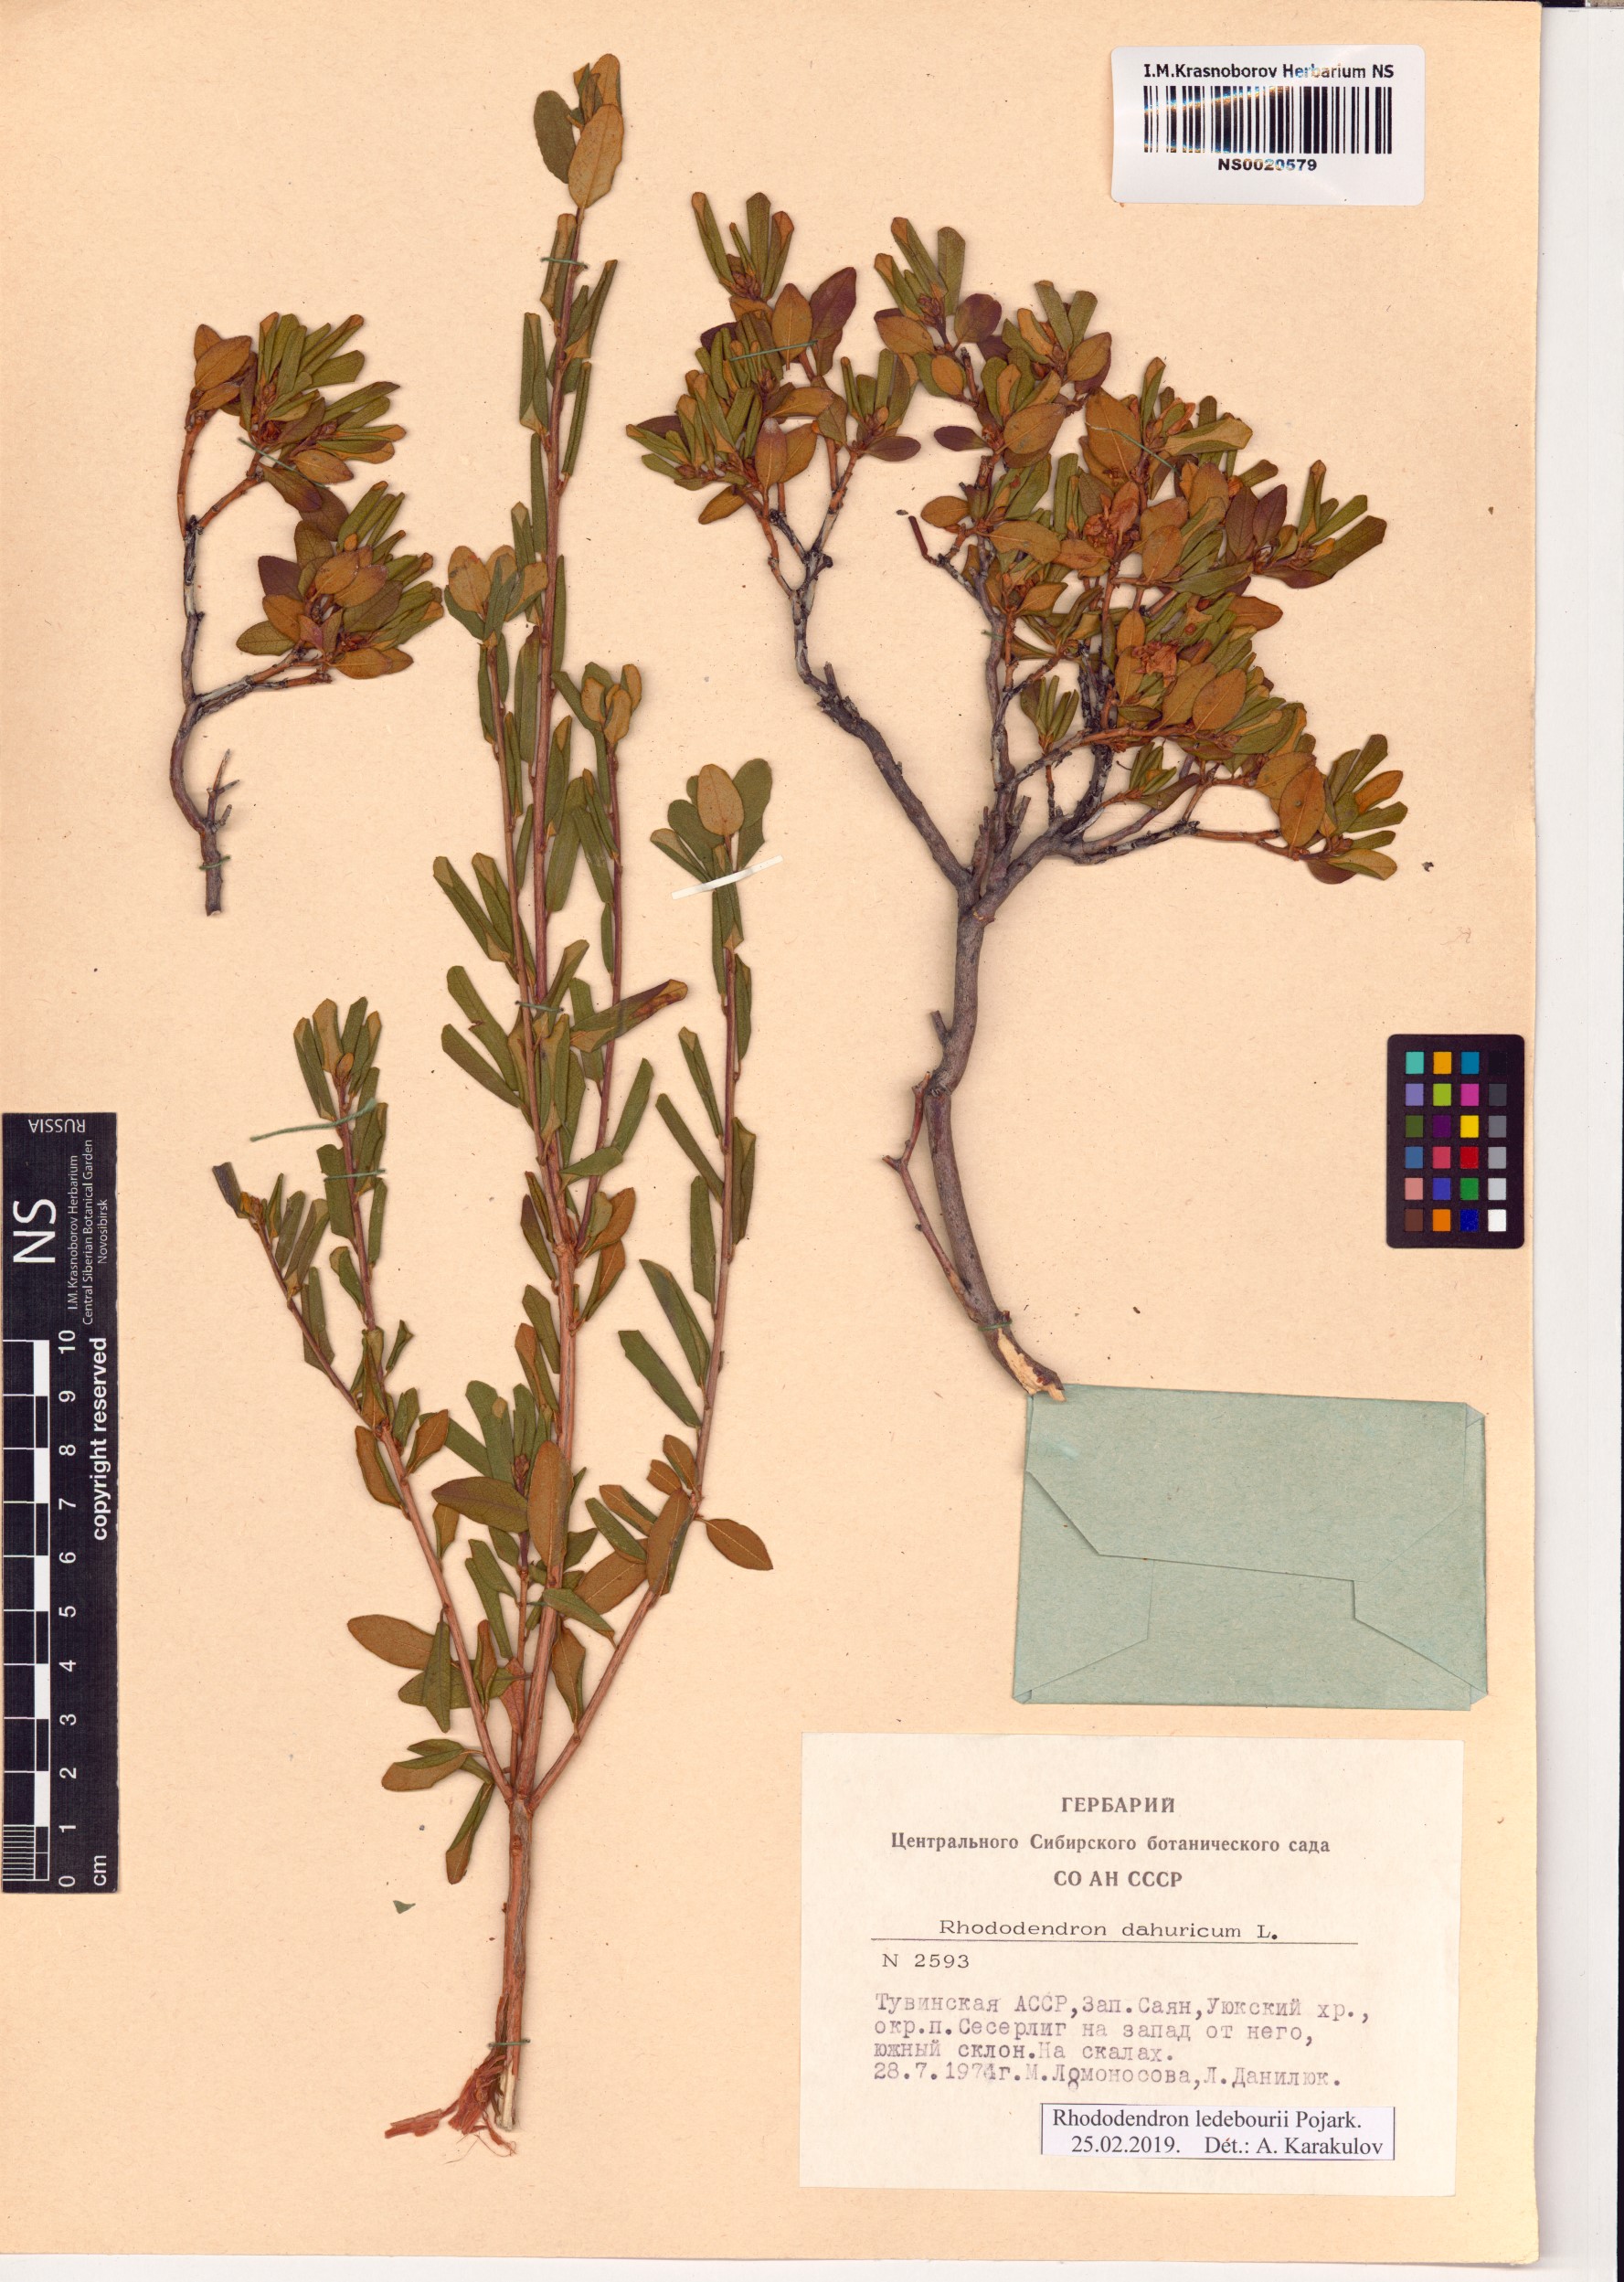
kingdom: Plantae
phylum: Tracheophyta
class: Magnoliopsida
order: Ericales
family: Ericaceae
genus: Rhododendron
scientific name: Rhododendron dauricum
